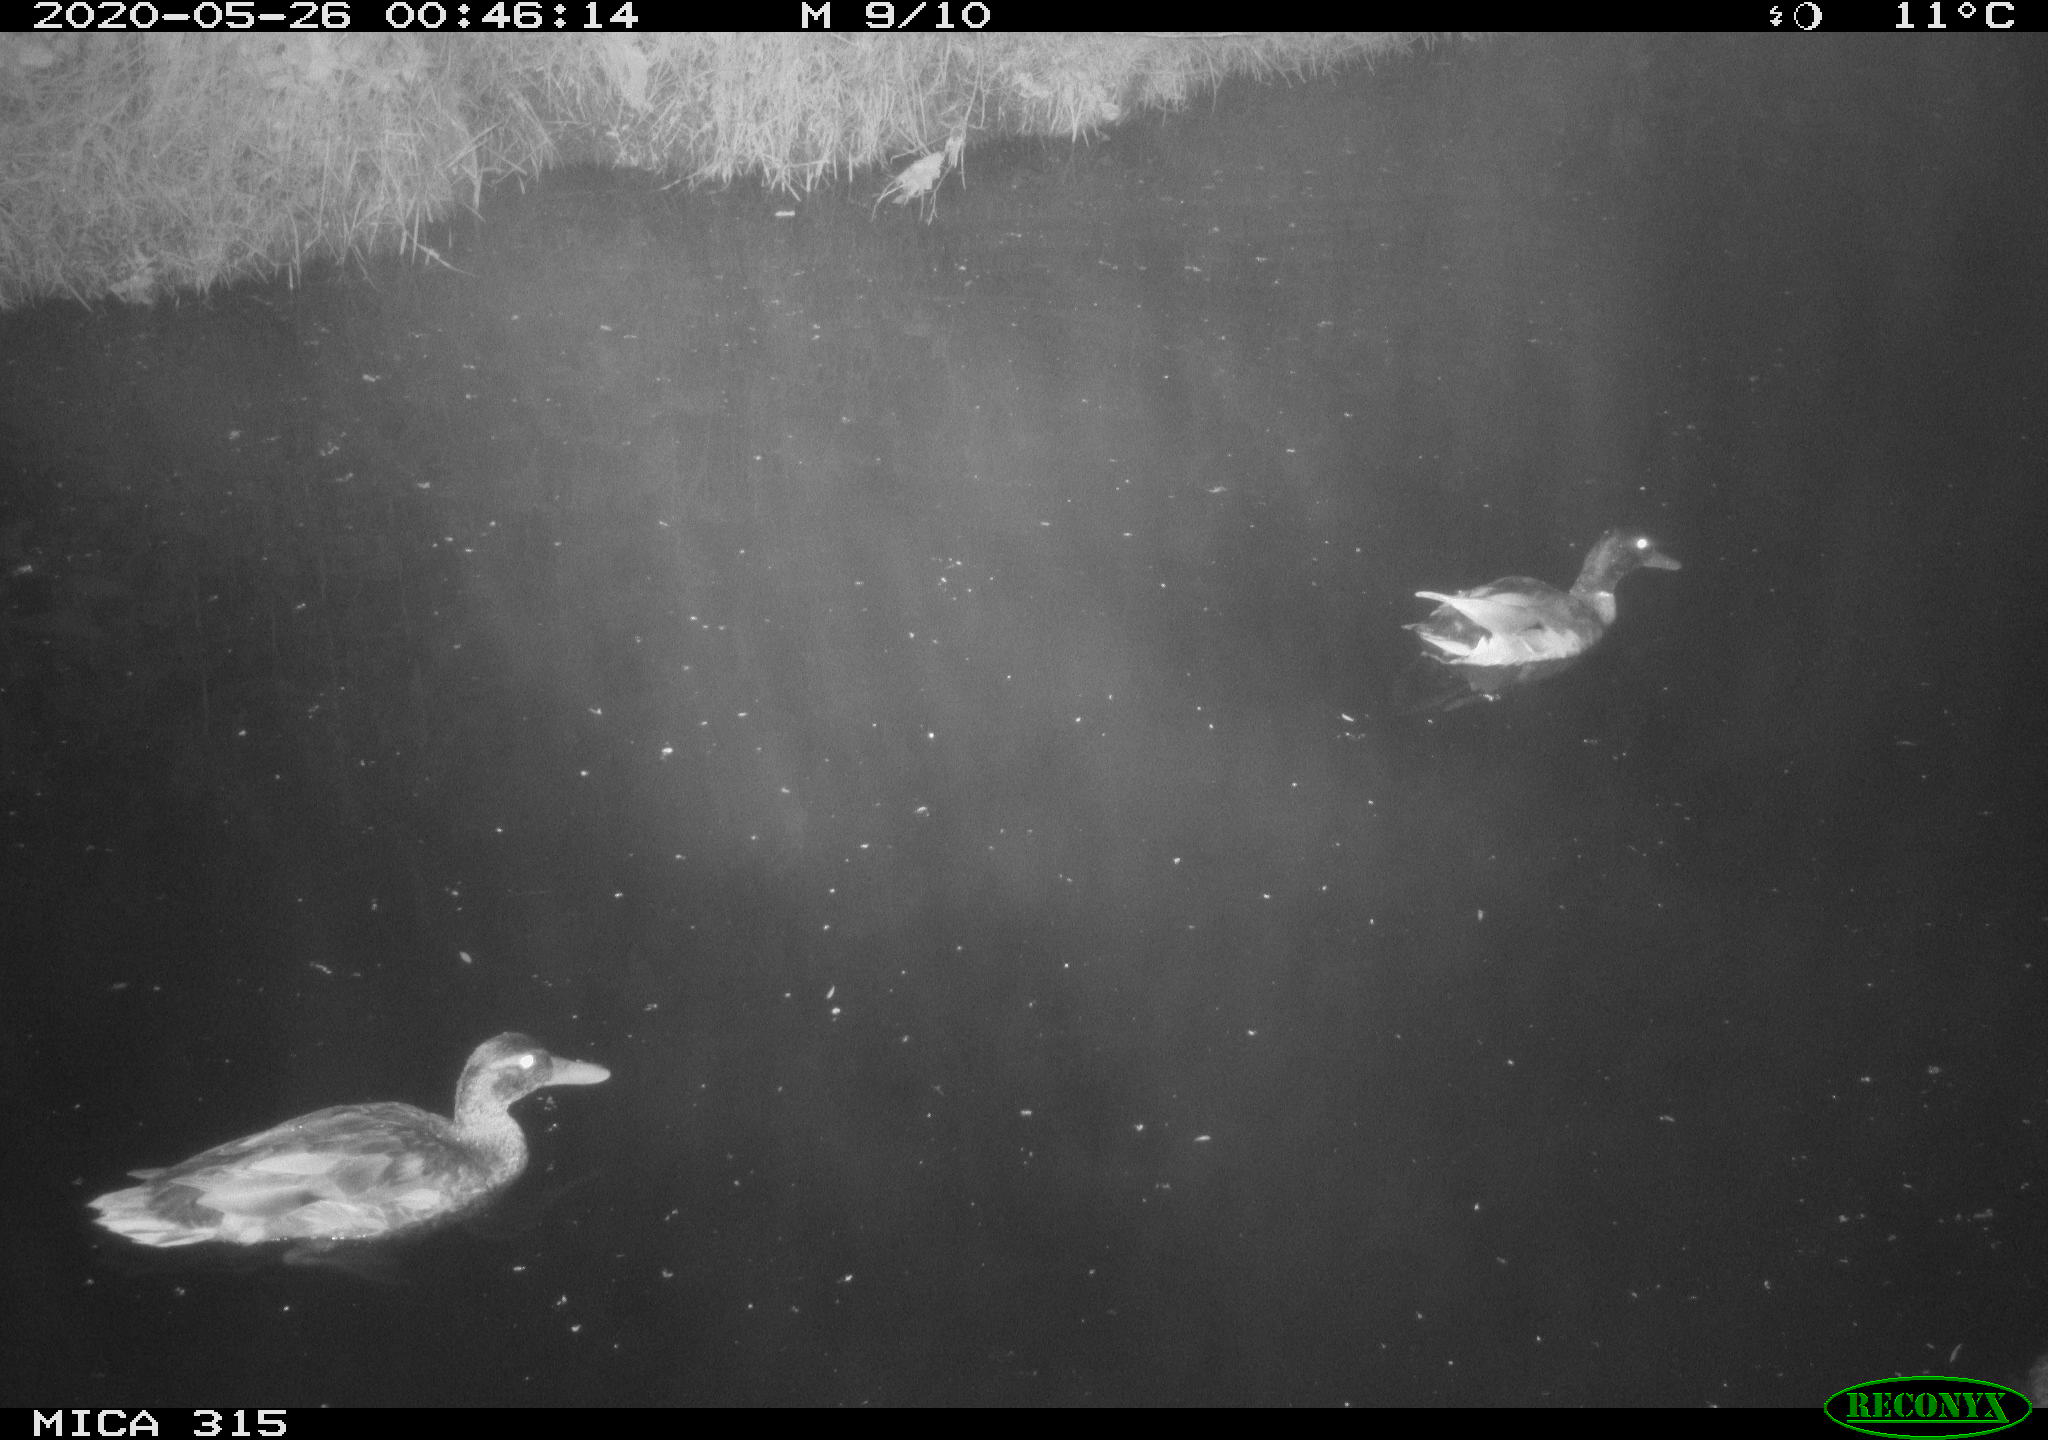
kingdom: Animalia
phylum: Chordata
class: Aves
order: Anseriformes
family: Anatidae
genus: Anas
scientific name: Anas platyrhynchos
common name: Mallard
